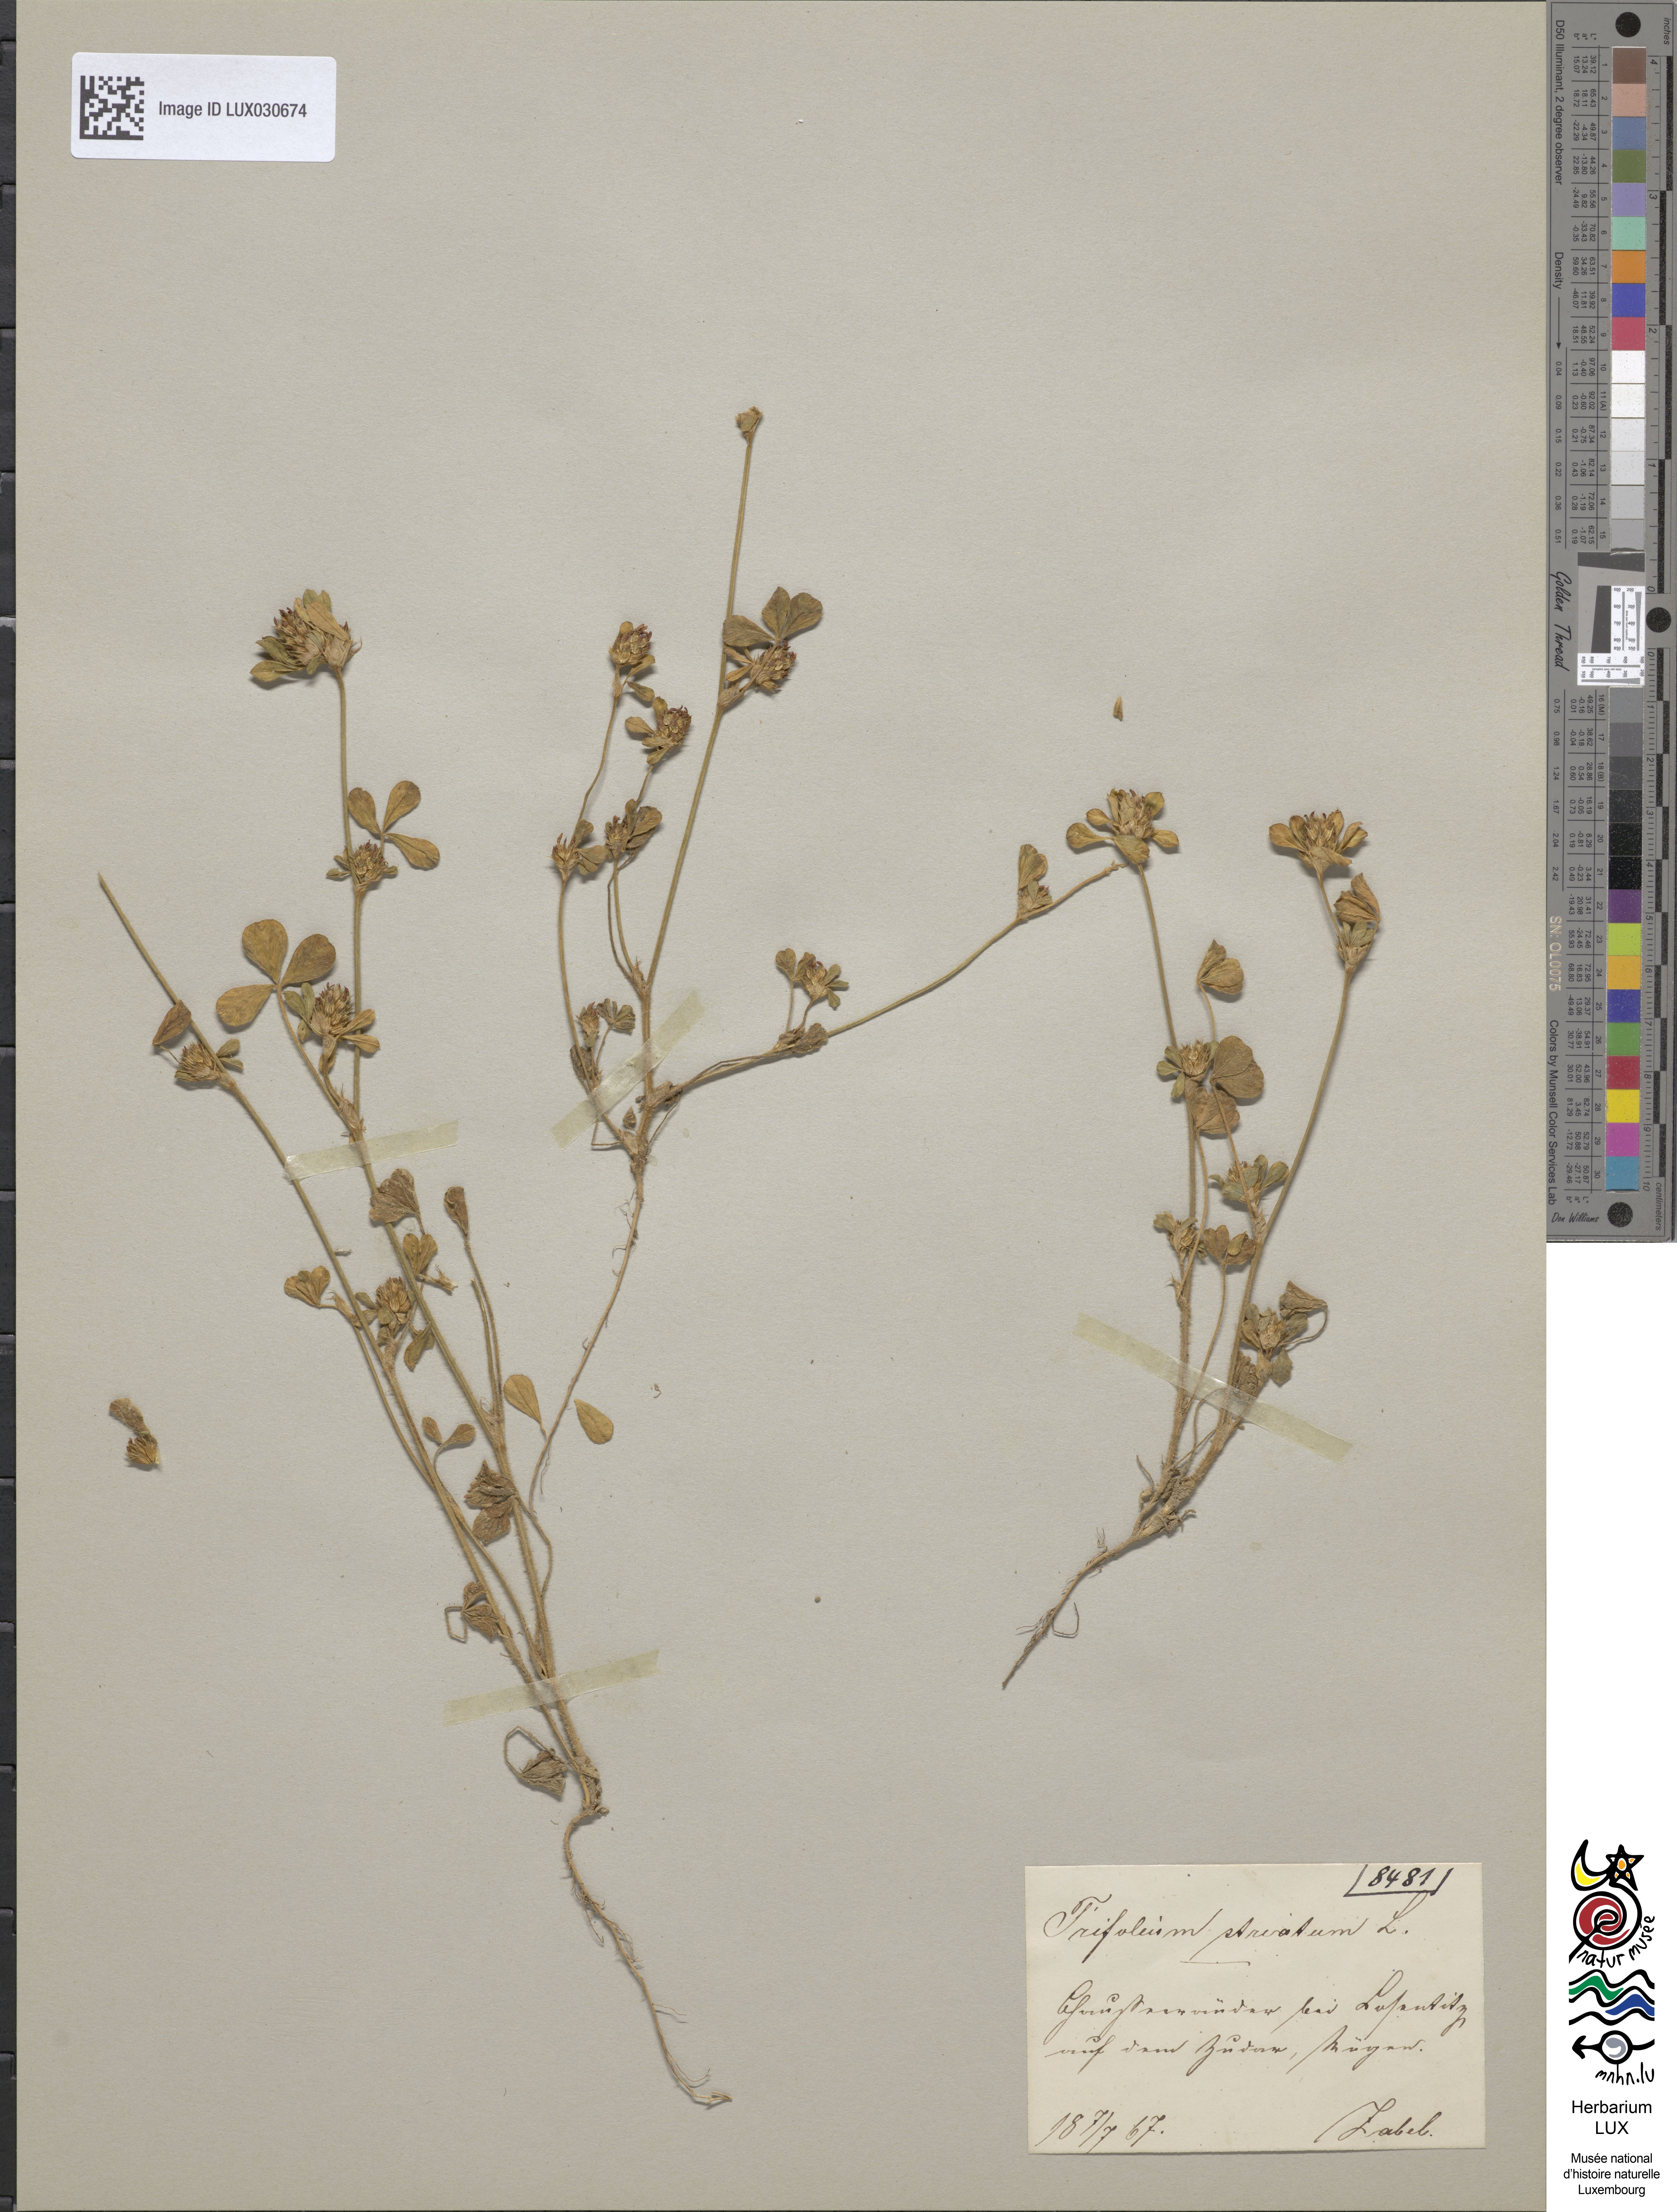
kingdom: Plantae
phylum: Tracheophyta
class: Magnoliopsida
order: Fabales
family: Fabaceae
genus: Trifolium
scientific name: Trifolium striatum
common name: Knotted clover
